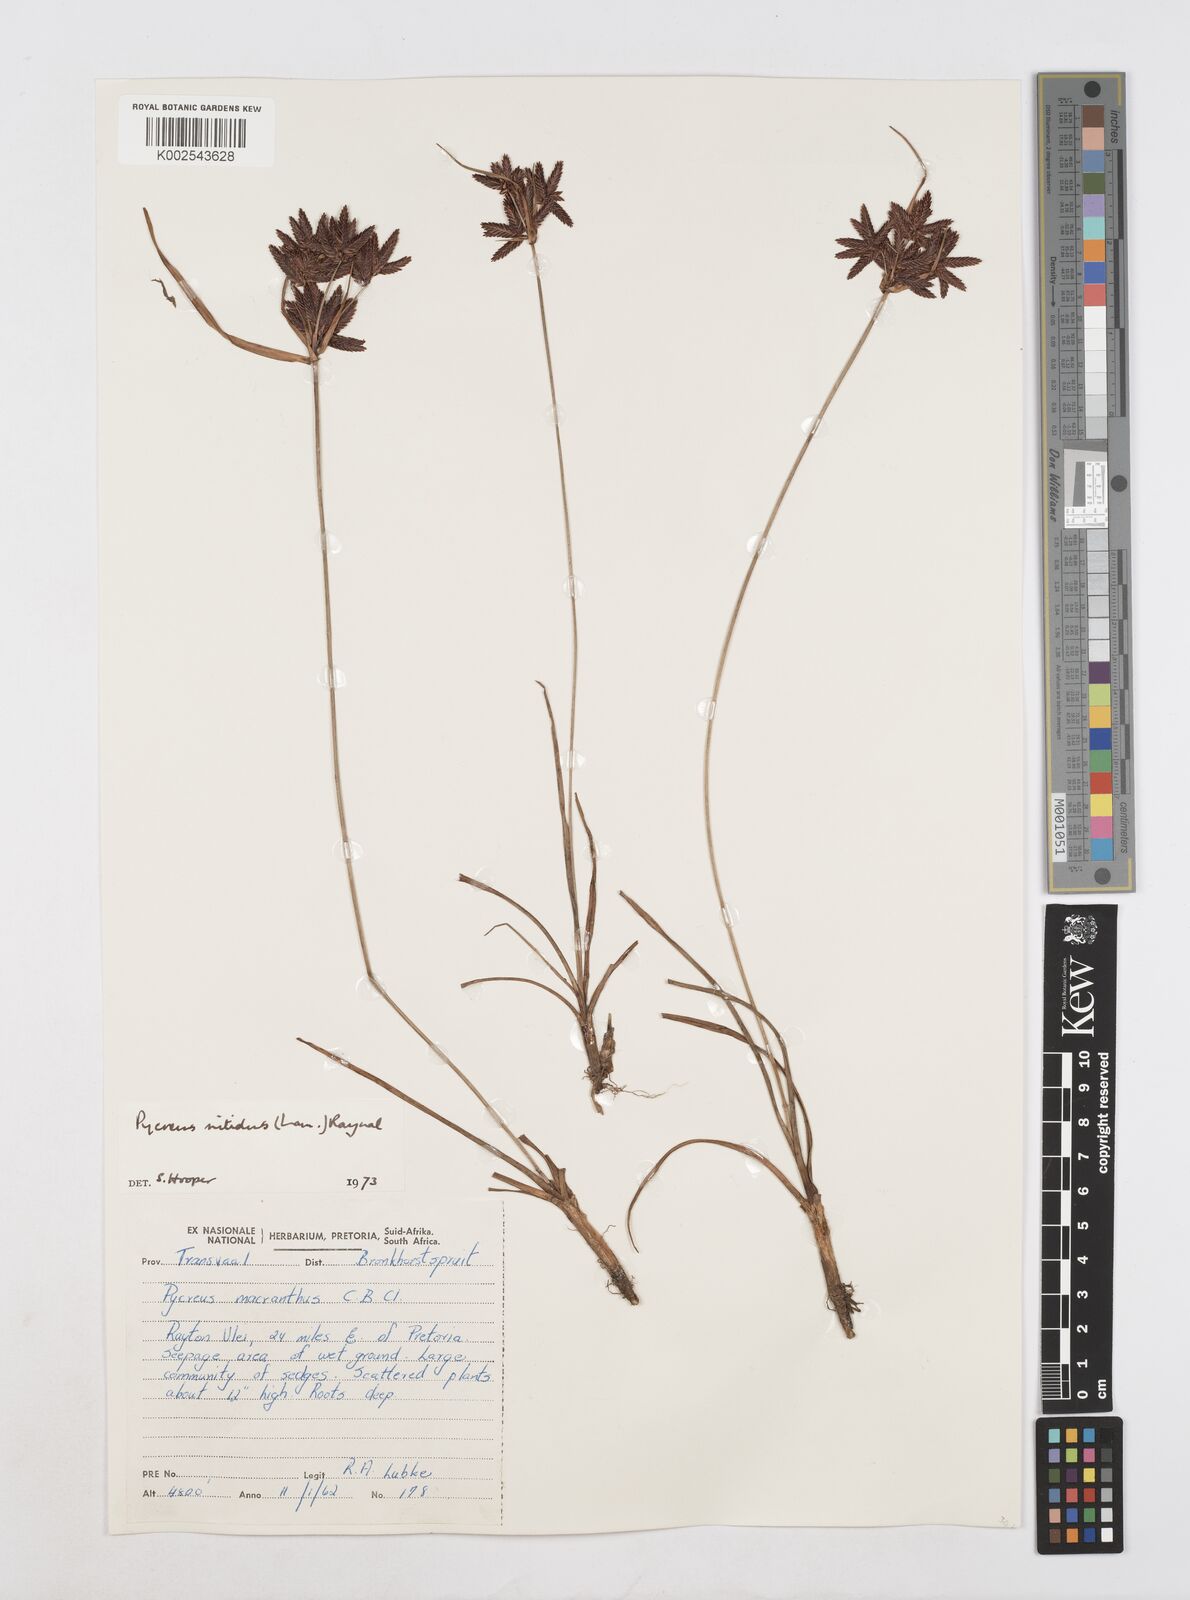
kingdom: Plantae
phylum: Tracheophyta
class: Liliopsida
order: Poales
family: Cyperaceae
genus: Cyperus
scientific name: Cyperus nitidus
